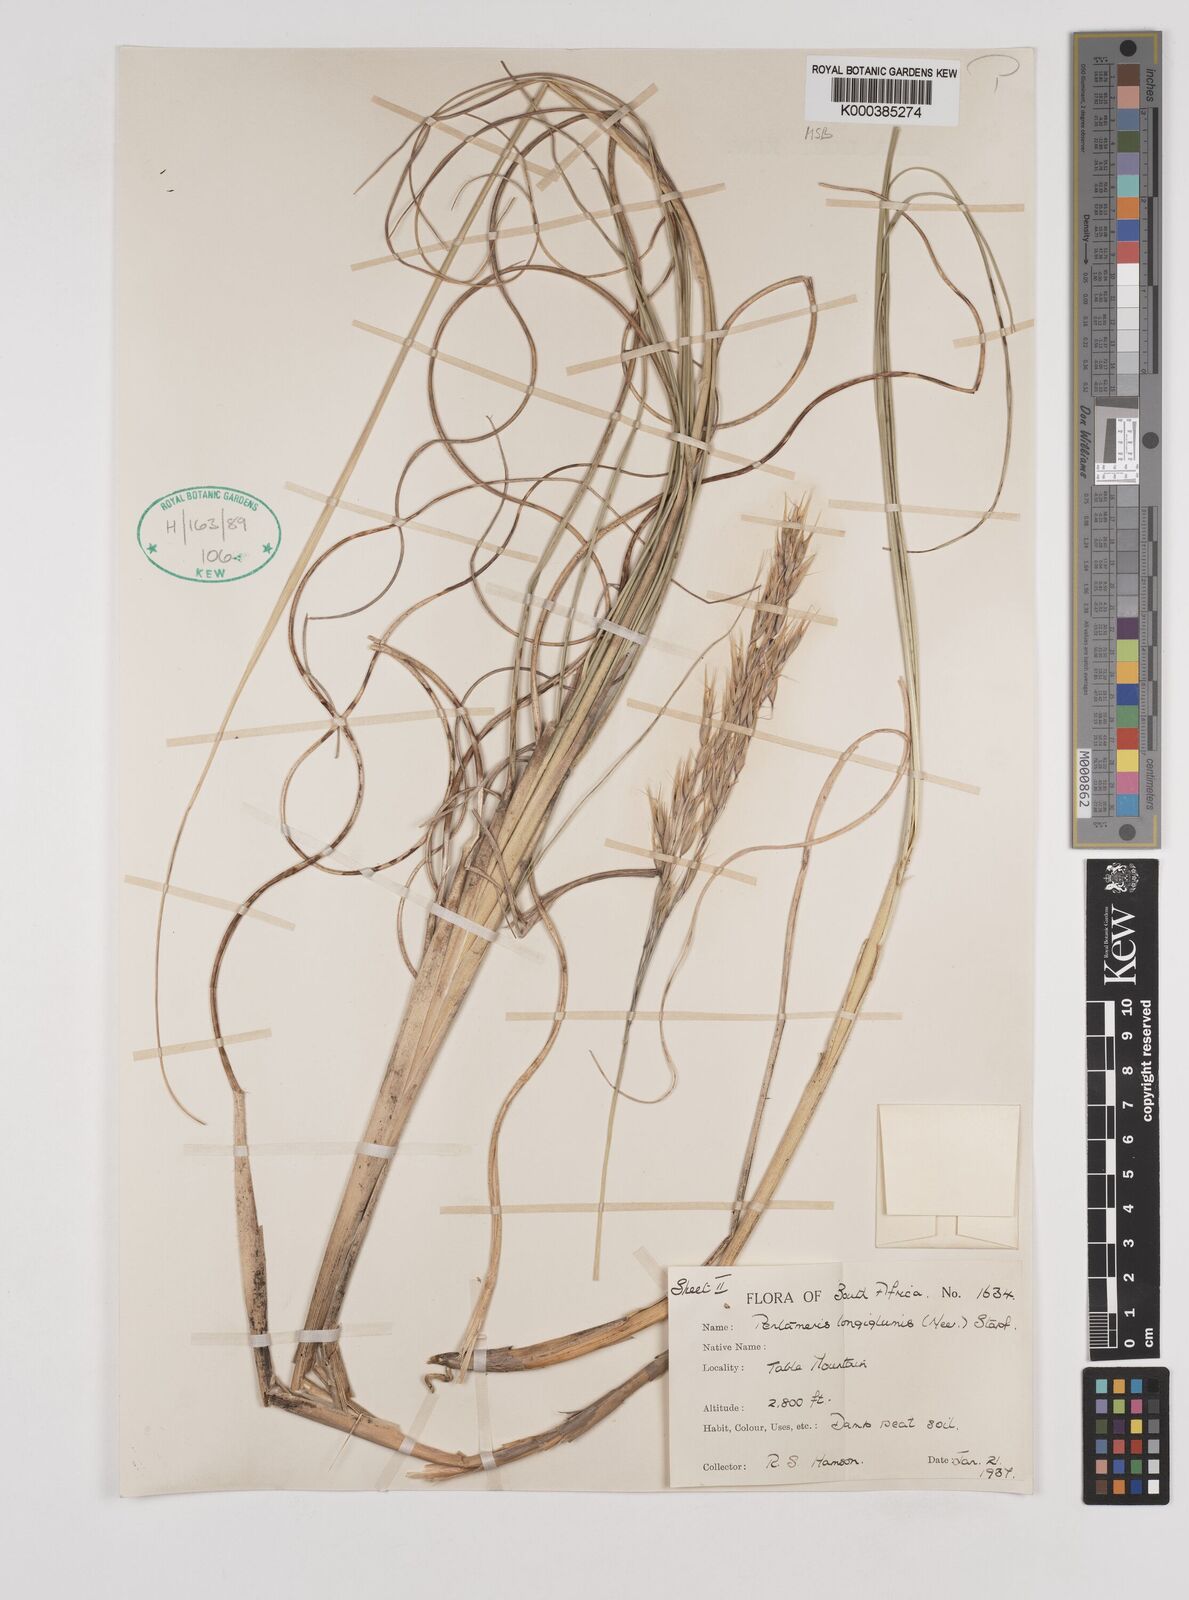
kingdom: Plantae
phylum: Tracheophyta
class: Liliopsida
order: Poales
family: Poaceae
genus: Pentameris
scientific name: Pentameris
